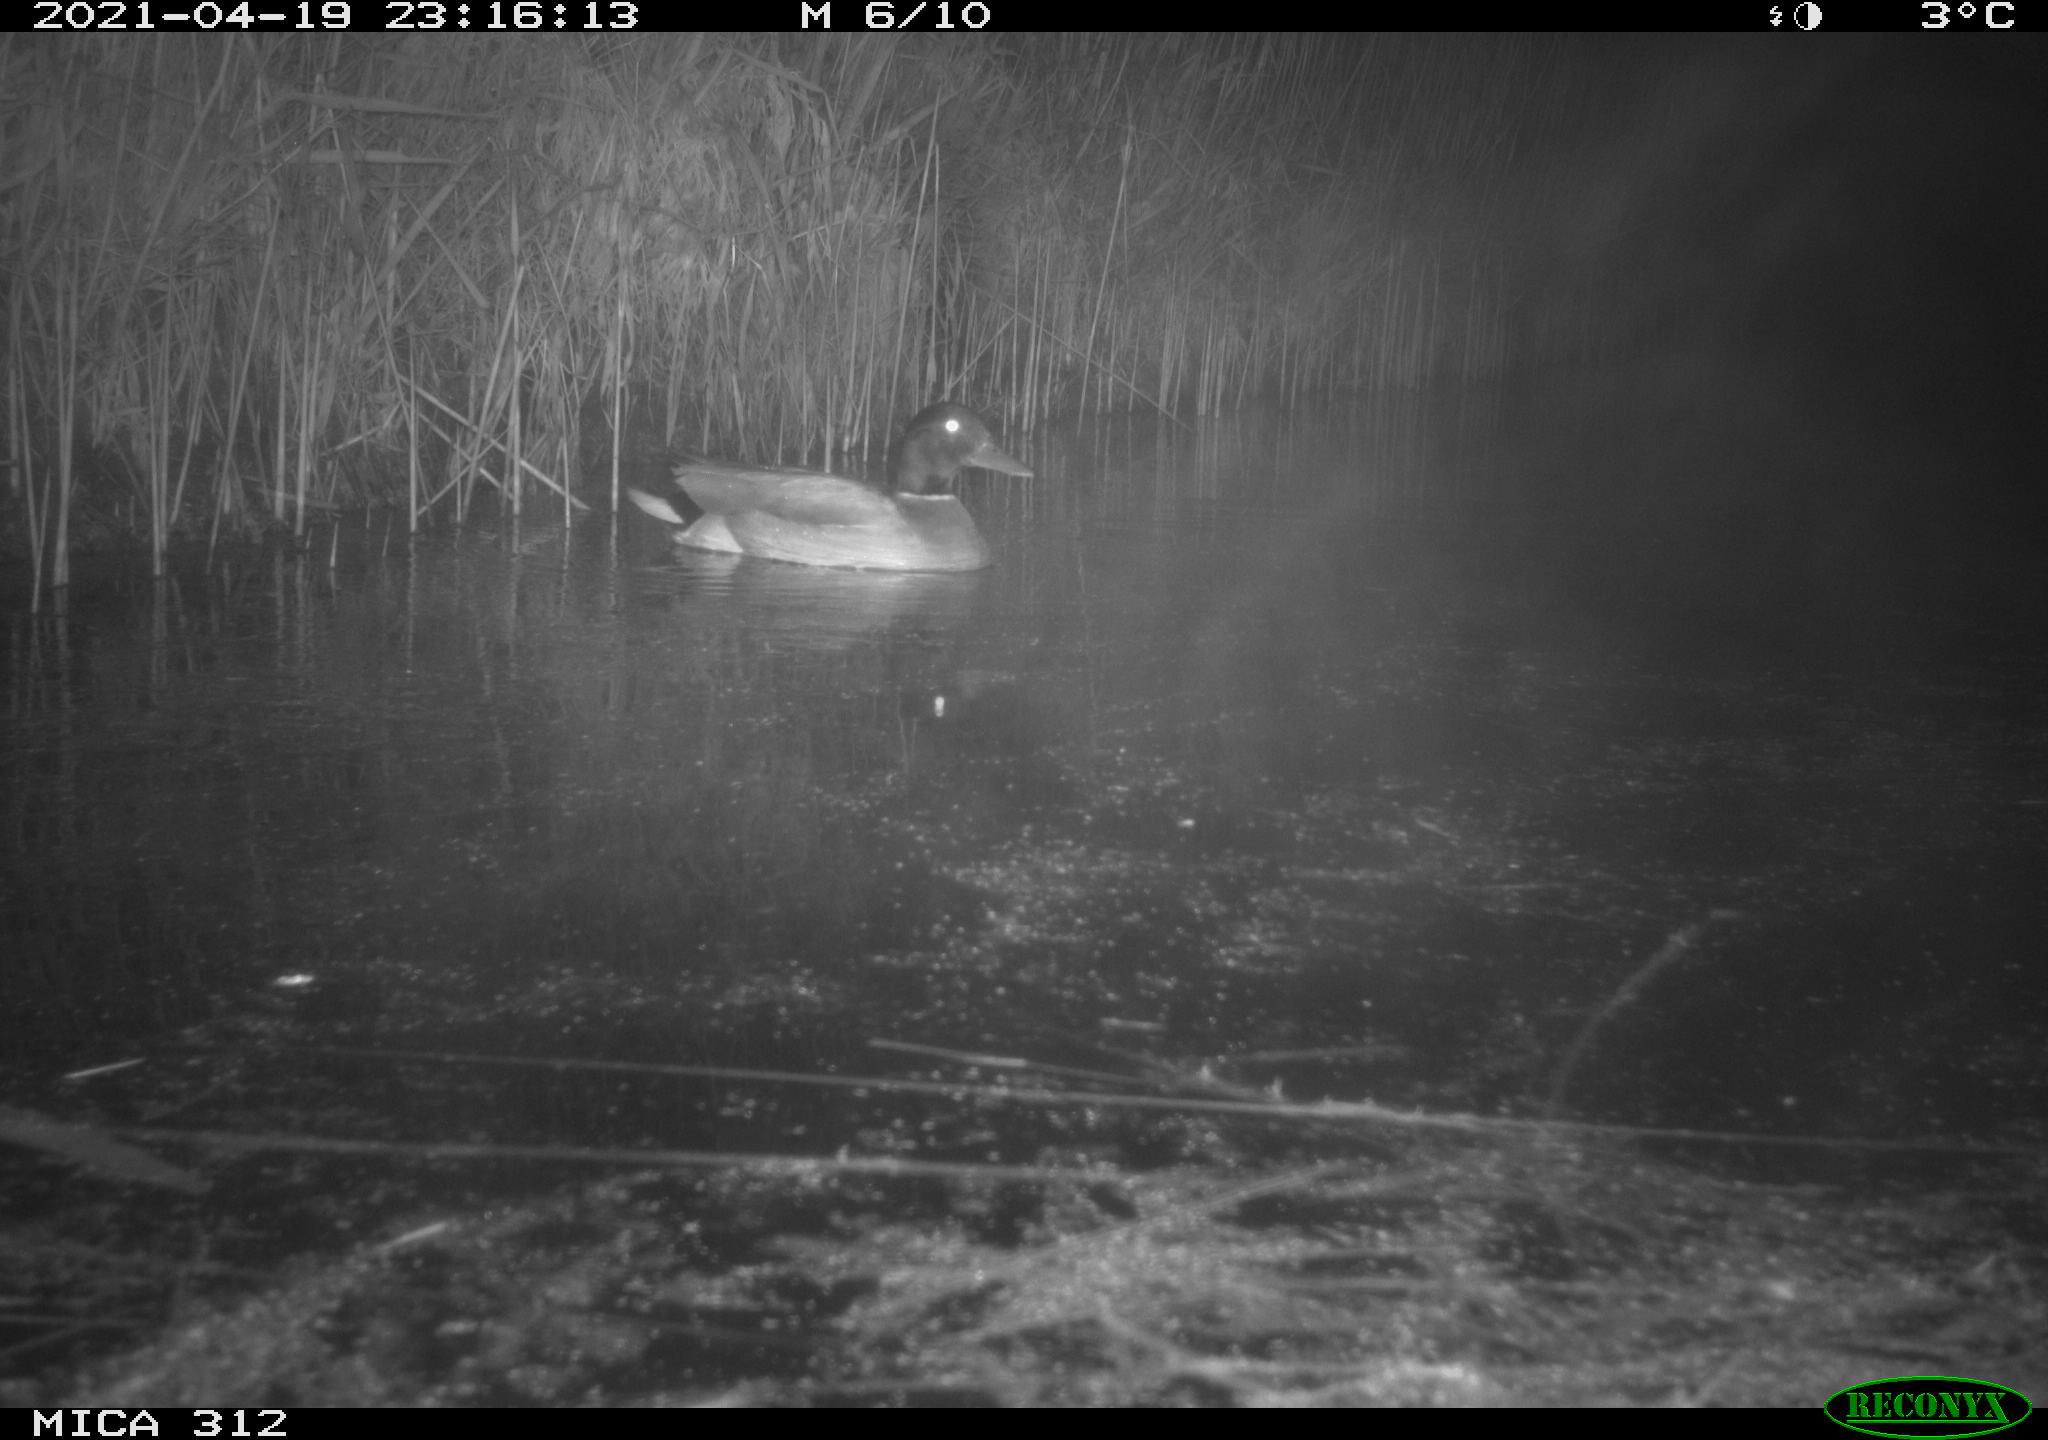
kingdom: Animalia
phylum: Chordata
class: Aves
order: Anseriformes
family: Anatidae
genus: Anas
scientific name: Anas platyrhynchos
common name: Mallard
